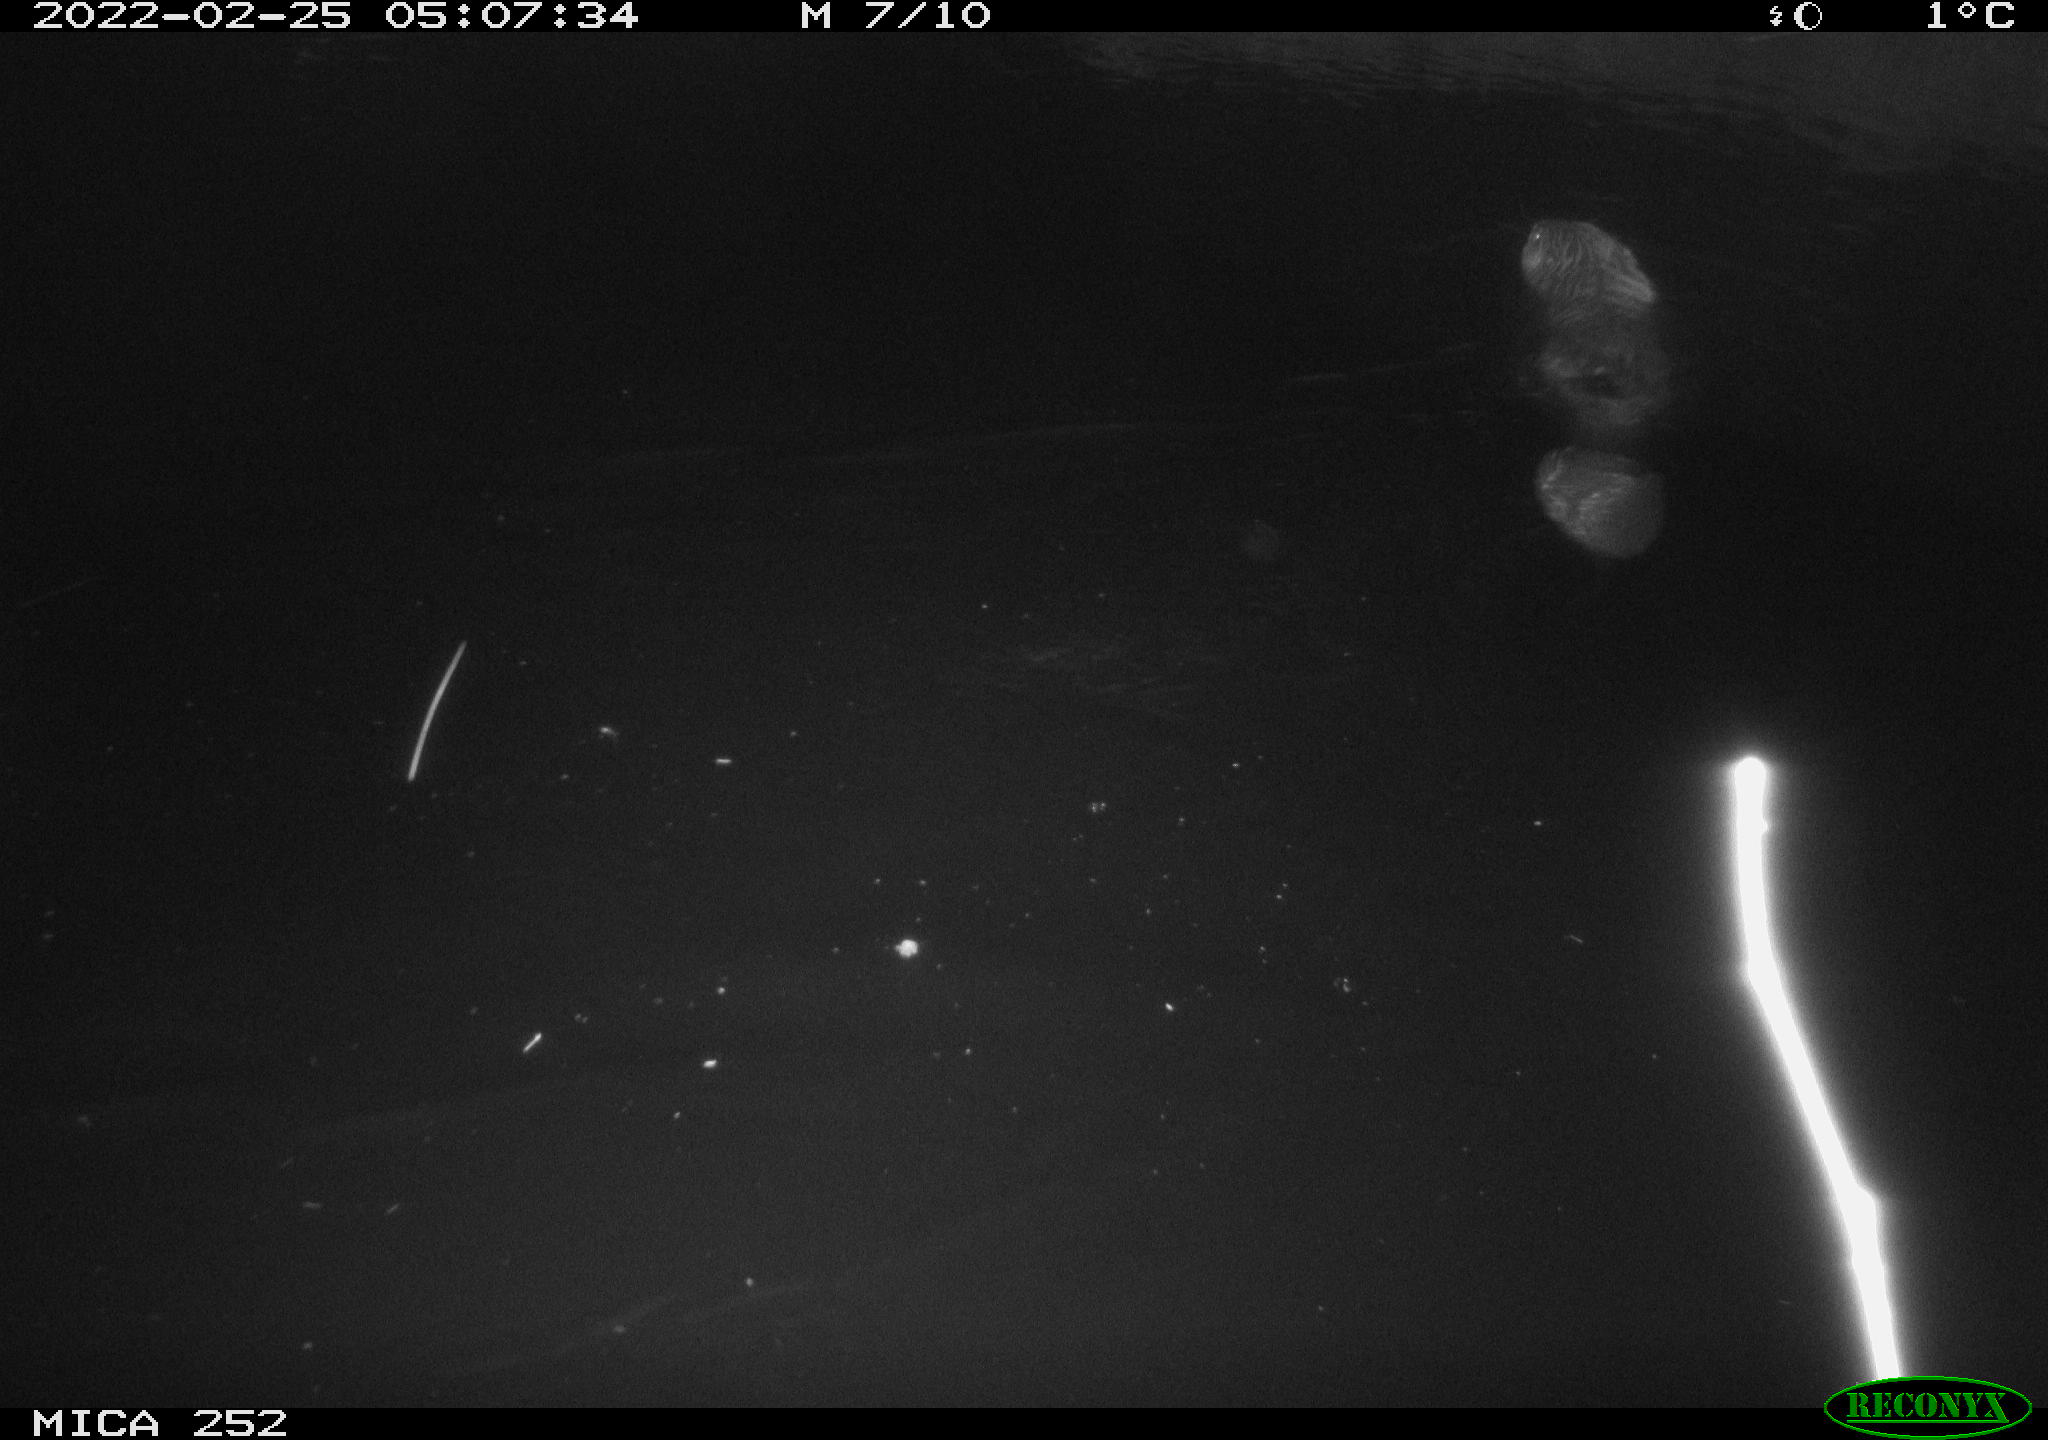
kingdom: Animalia
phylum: Chordata
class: Mammalia
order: Rodentia
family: Castoridae
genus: Castor
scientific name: Castor fiber
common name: Eurasian beaver
